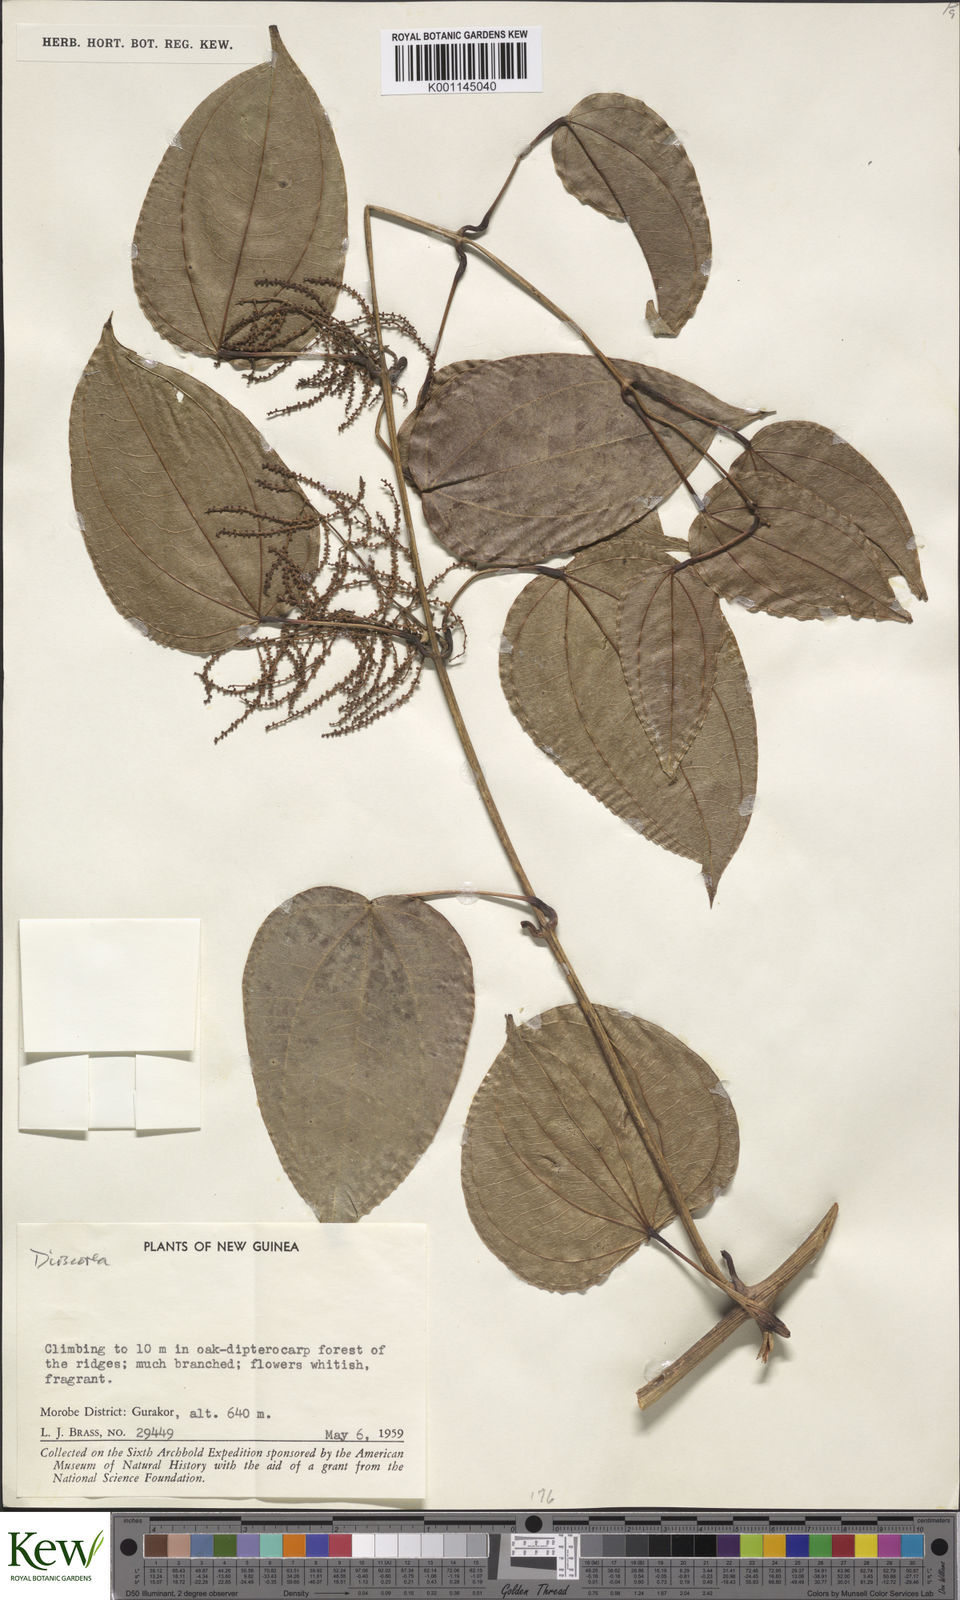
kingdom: Plantae
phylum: Tracheophyta
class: Liliopsida
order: Dioscoreales
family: Dioscoreaceae
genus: Dioscorea
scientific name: Dioscorea
